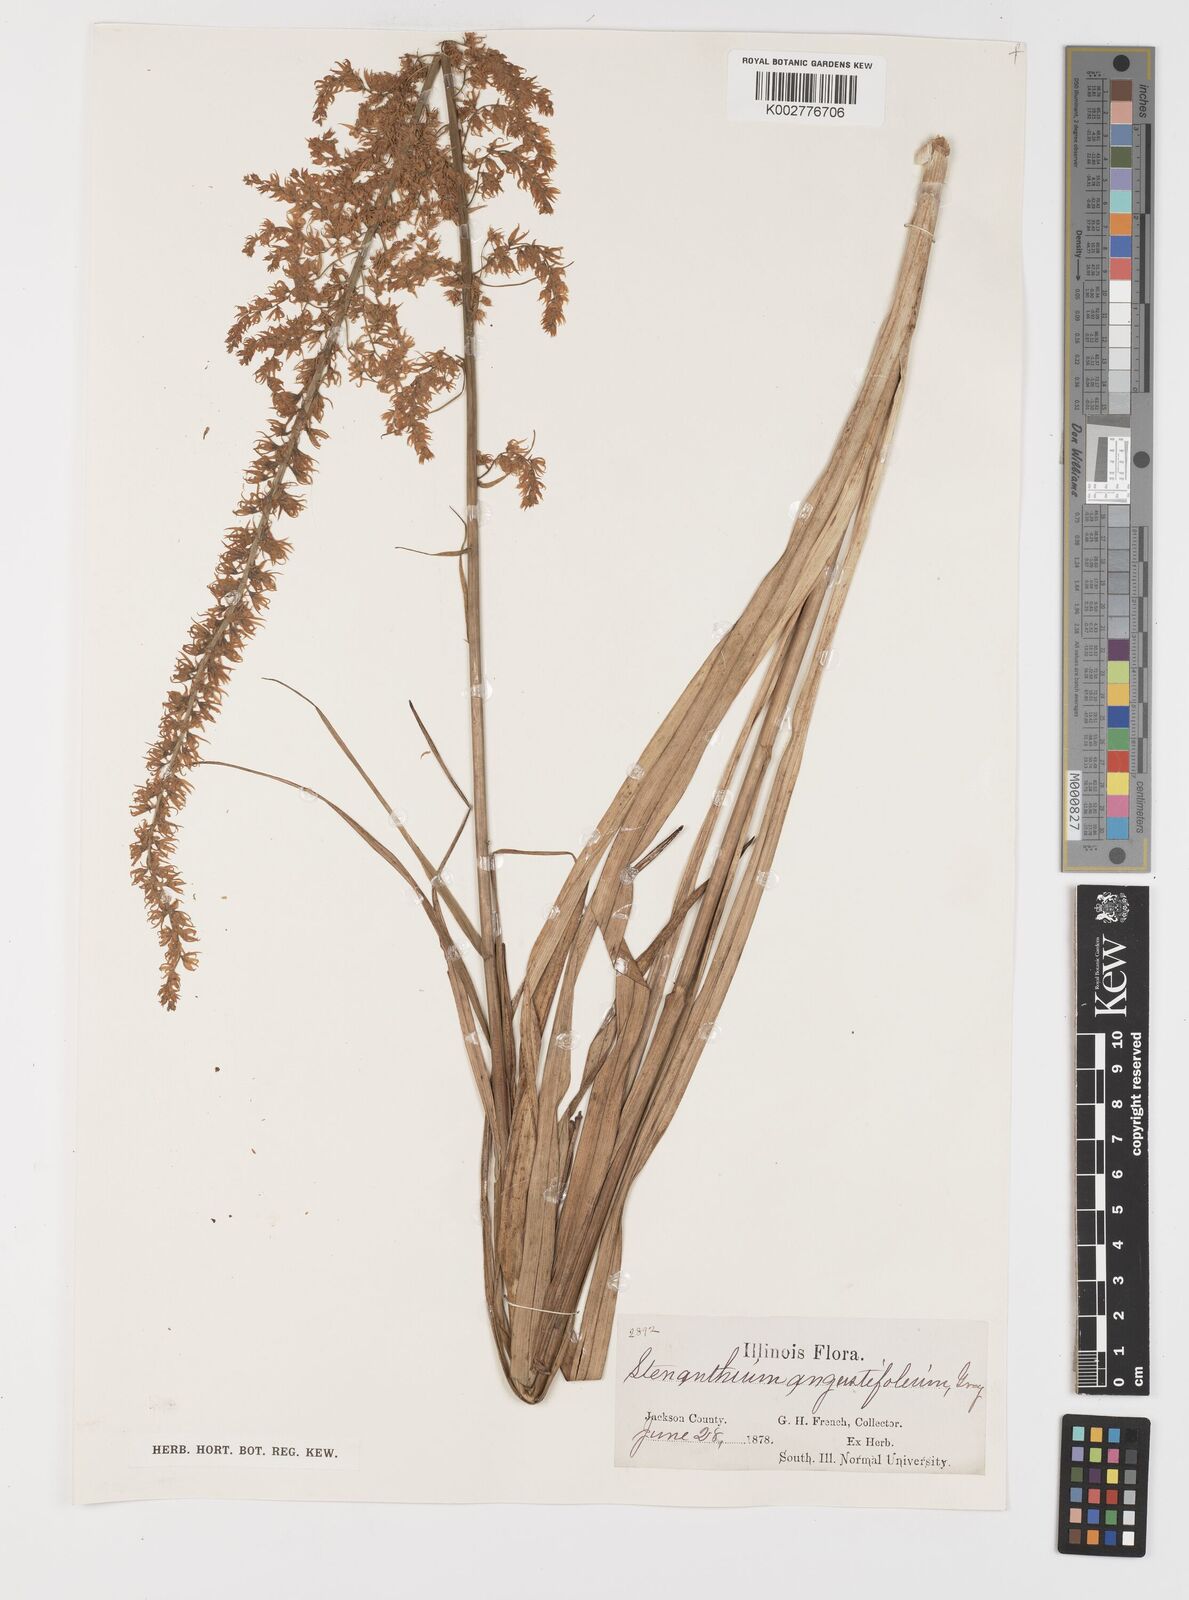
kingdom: Plantae
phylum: Tracheophyta
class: Liliopsida
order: Liliales
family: Melanthiaceae
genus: Stenanthium
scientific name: Stenanthium gramineum
